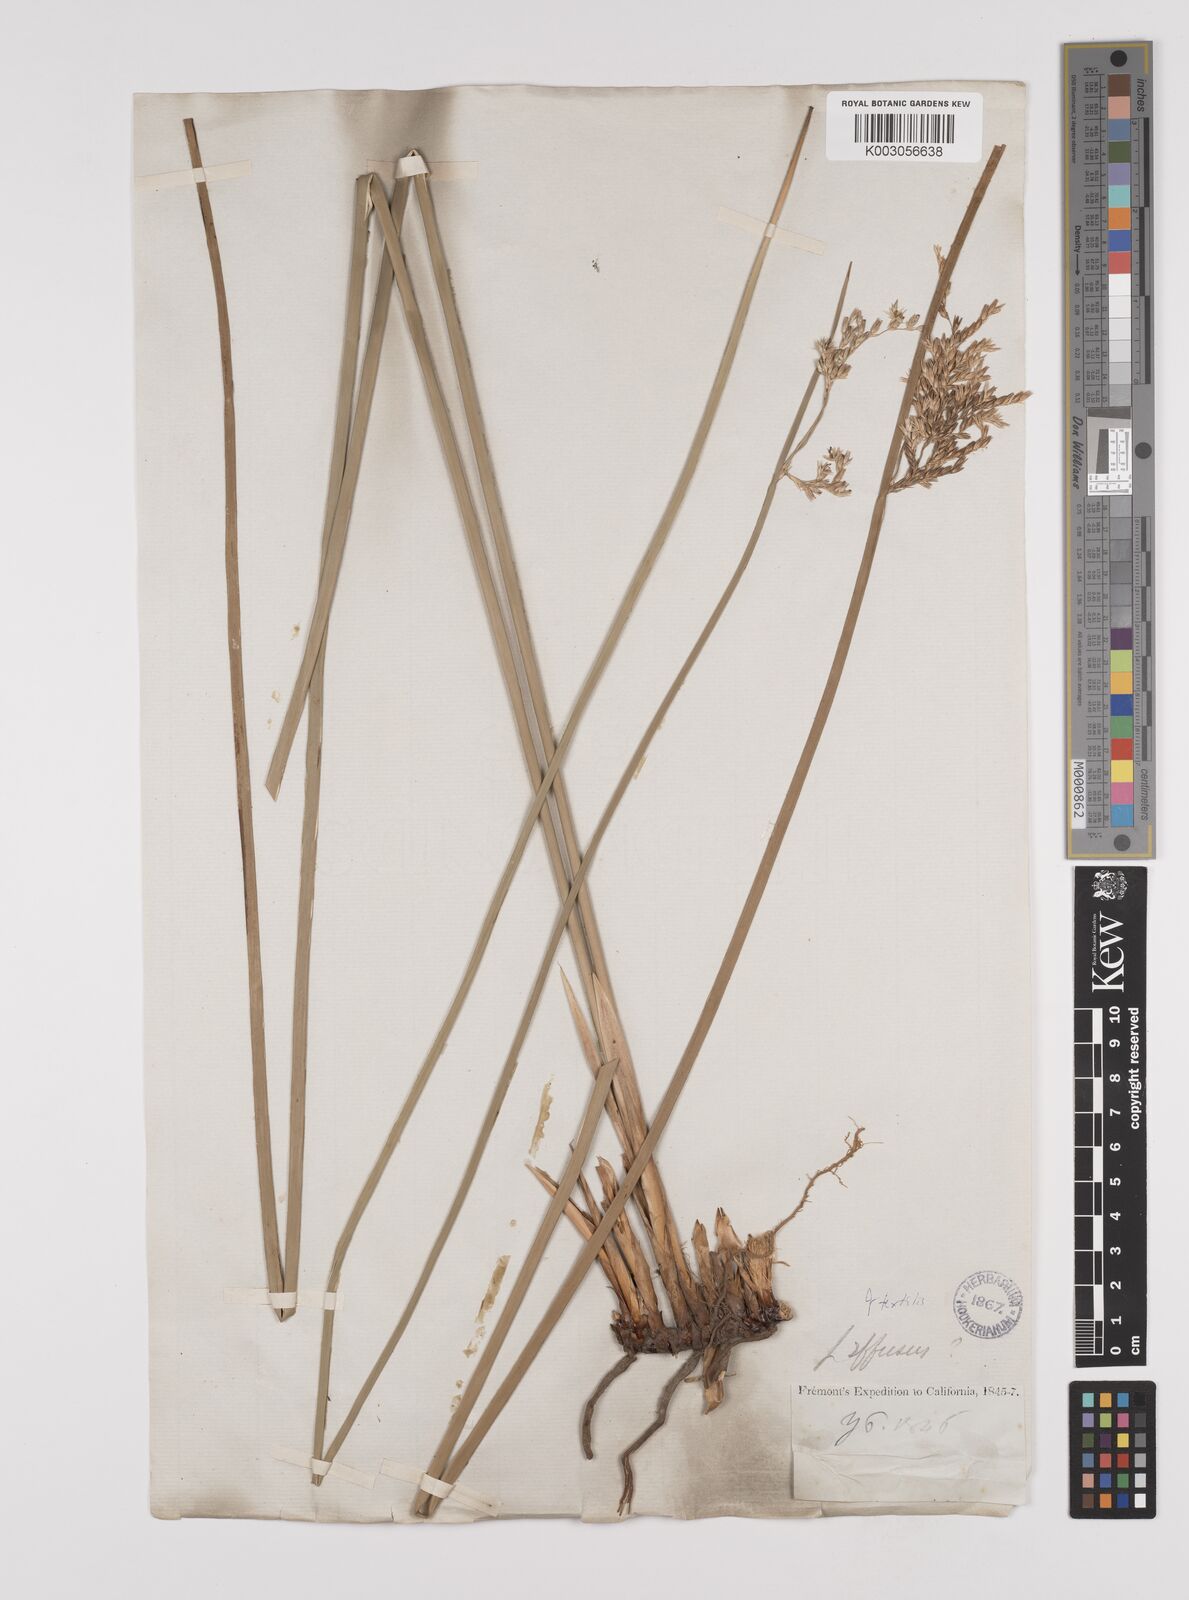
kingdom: Plantae
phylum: Tracheophyta
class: Liliopsida
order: Poales
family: Juncaceae
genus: Juncus
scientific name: Juncus textilis
